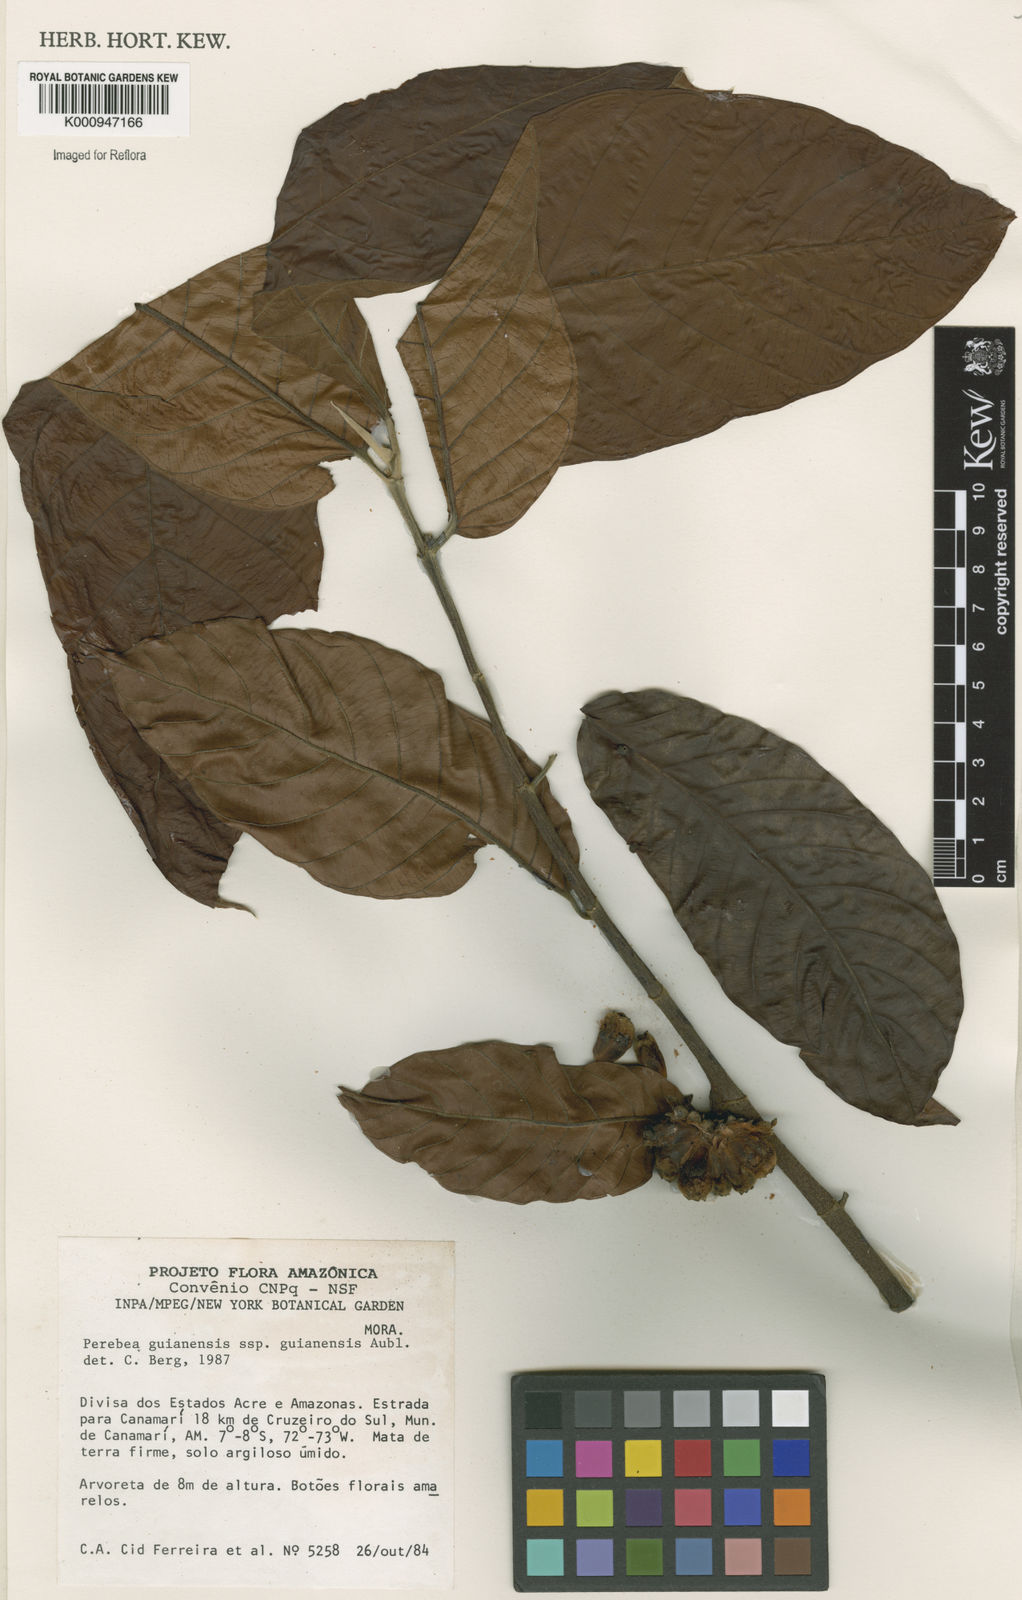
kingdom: Plantae
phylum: Tracheophyta
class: Magnoliopsida
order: Rosales
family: Moraceae
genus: Perebea
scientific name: Perebea guianensis
